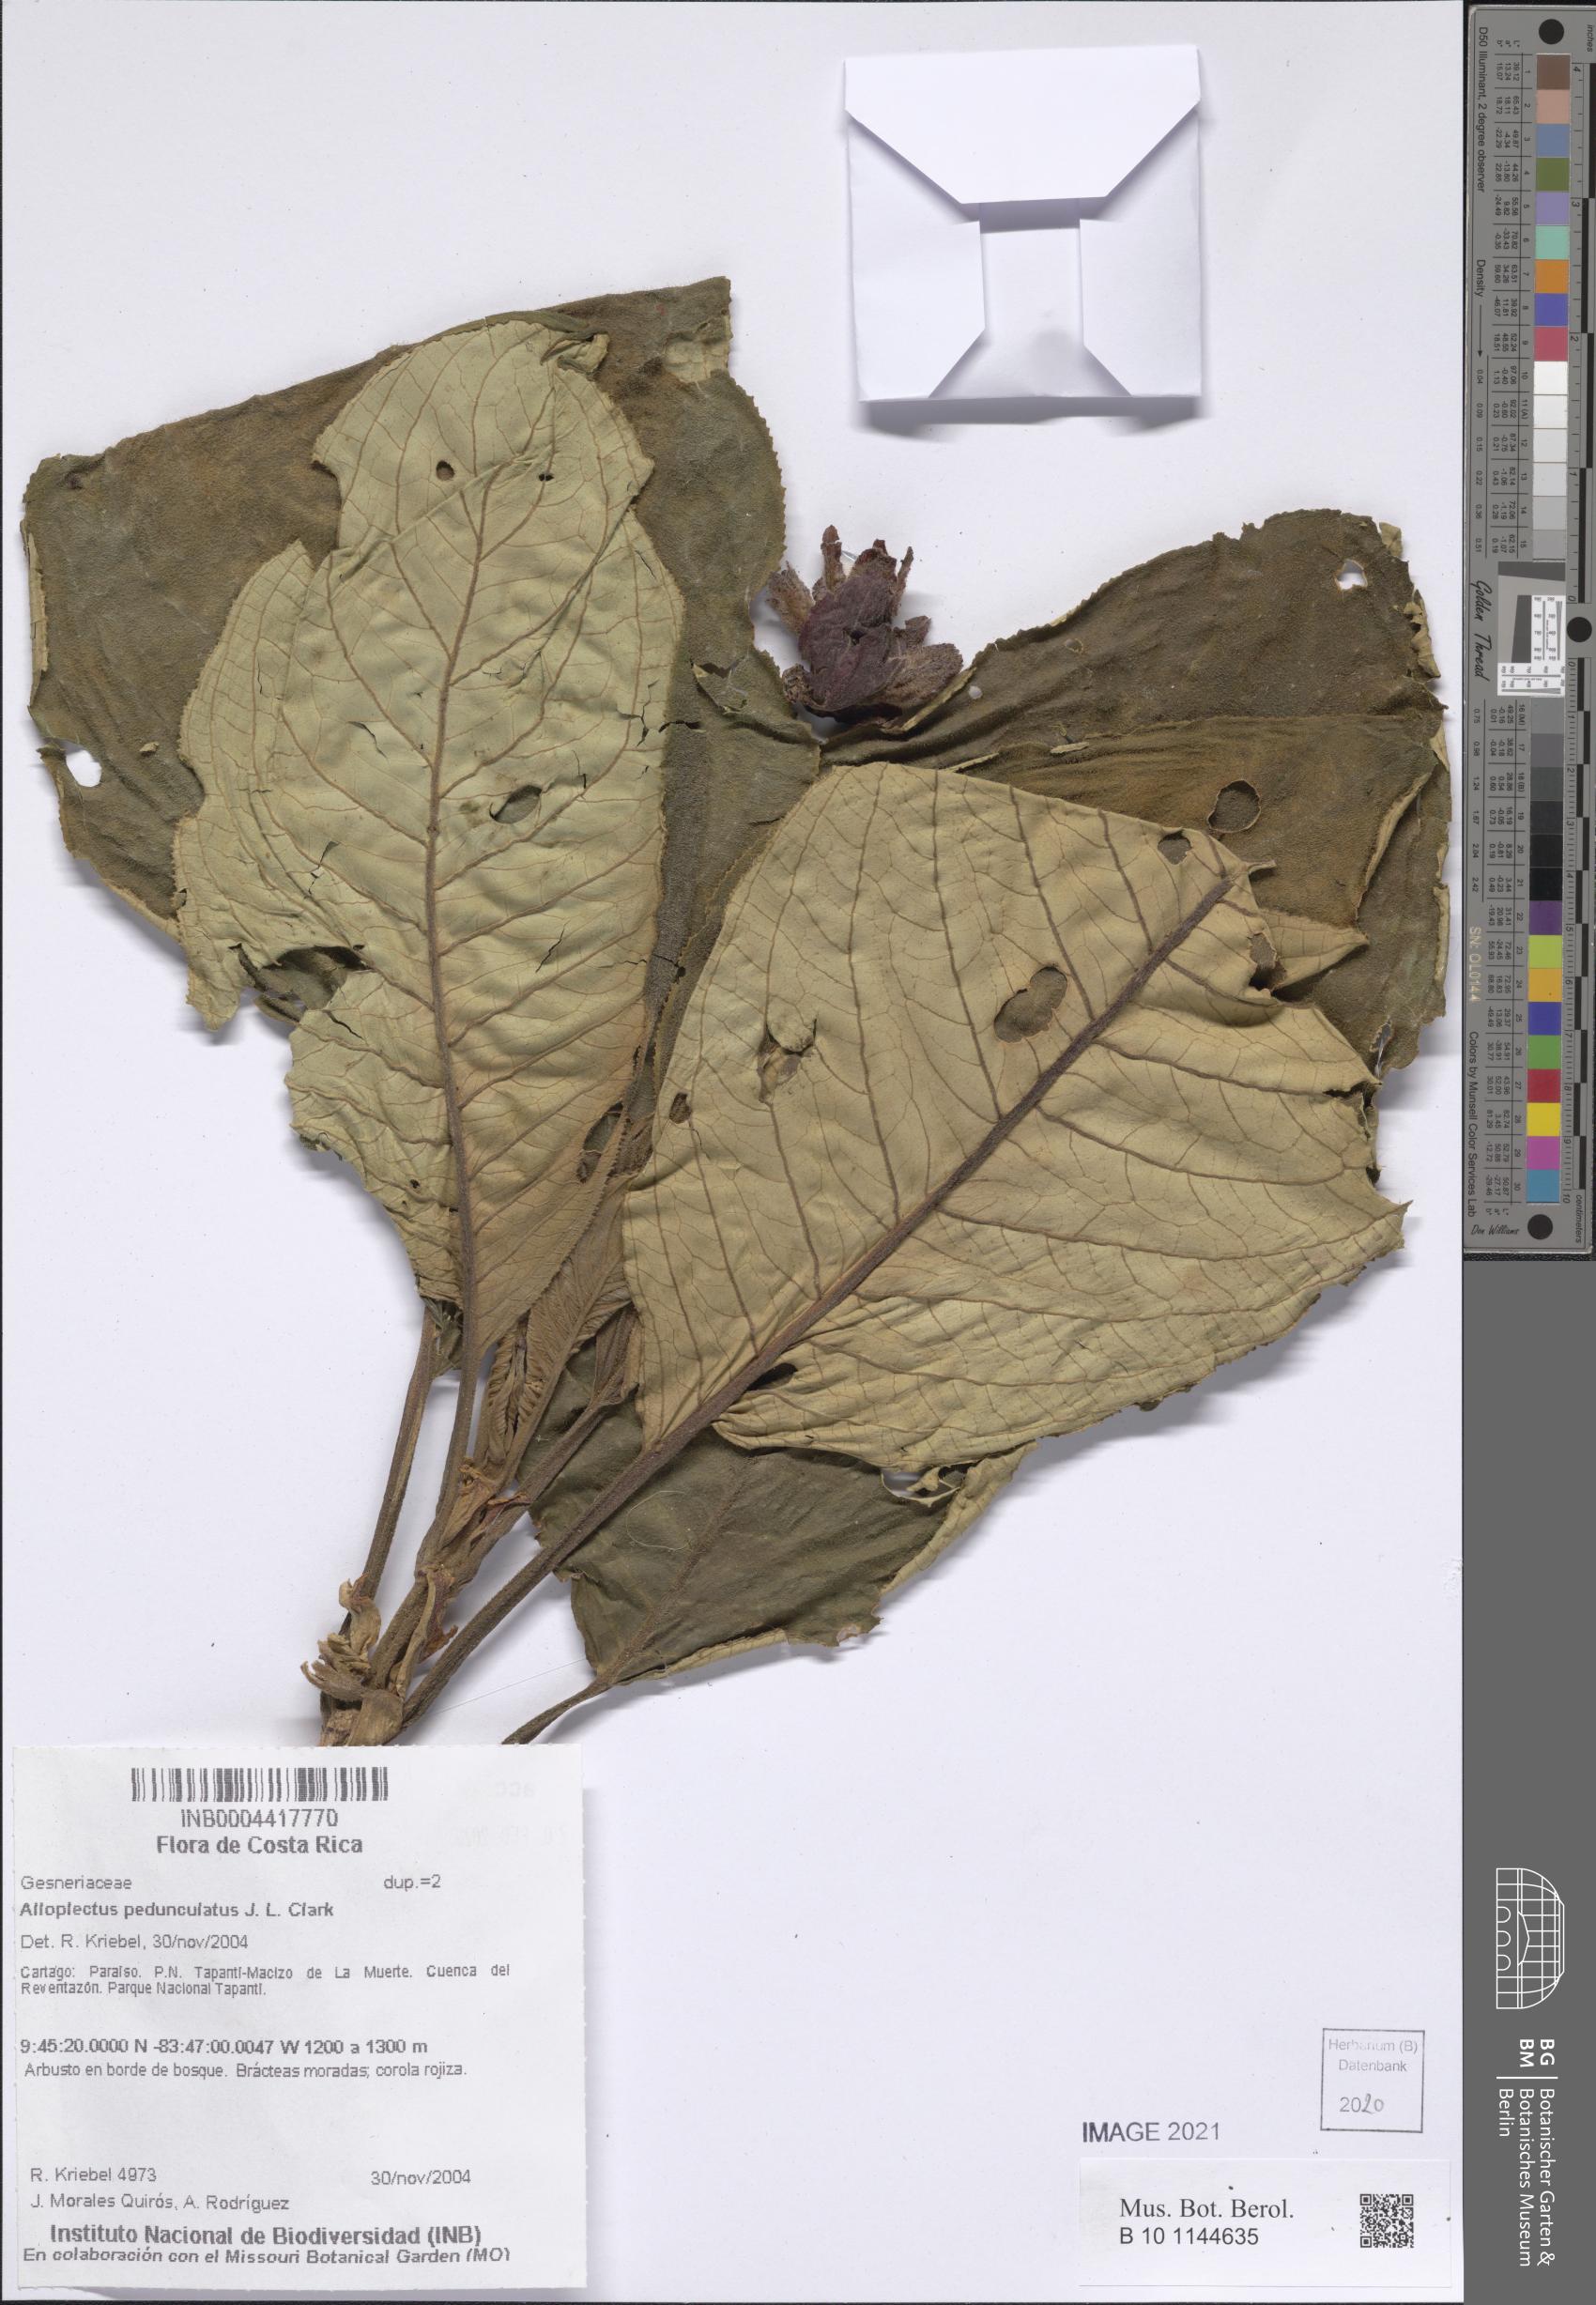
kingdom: Plantae
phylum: Tracheophyta
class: Magnoliopsida
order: Lamiales
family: Gesneriaceae
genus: Alloplectus
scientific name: Alloplectus
